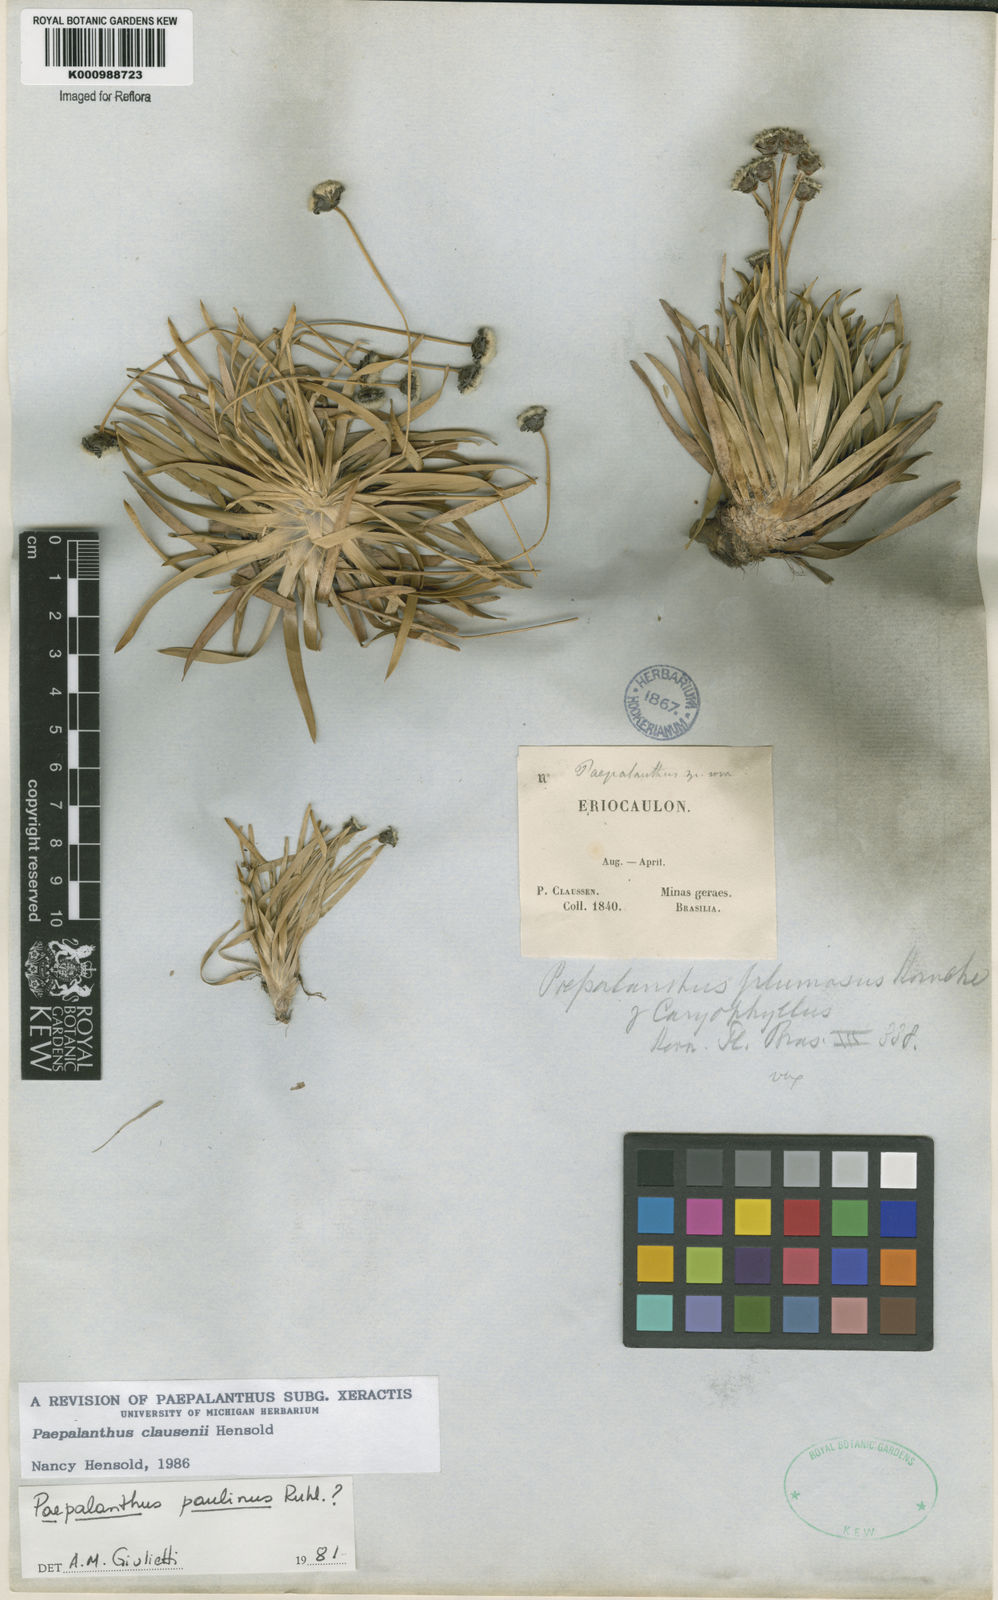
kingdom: Plantae
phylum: Tracheophyta
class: Liliopsida
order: Poales
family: Eriocaulaceae
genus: Paepalanthus
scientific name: Paepalanthus clausenii
